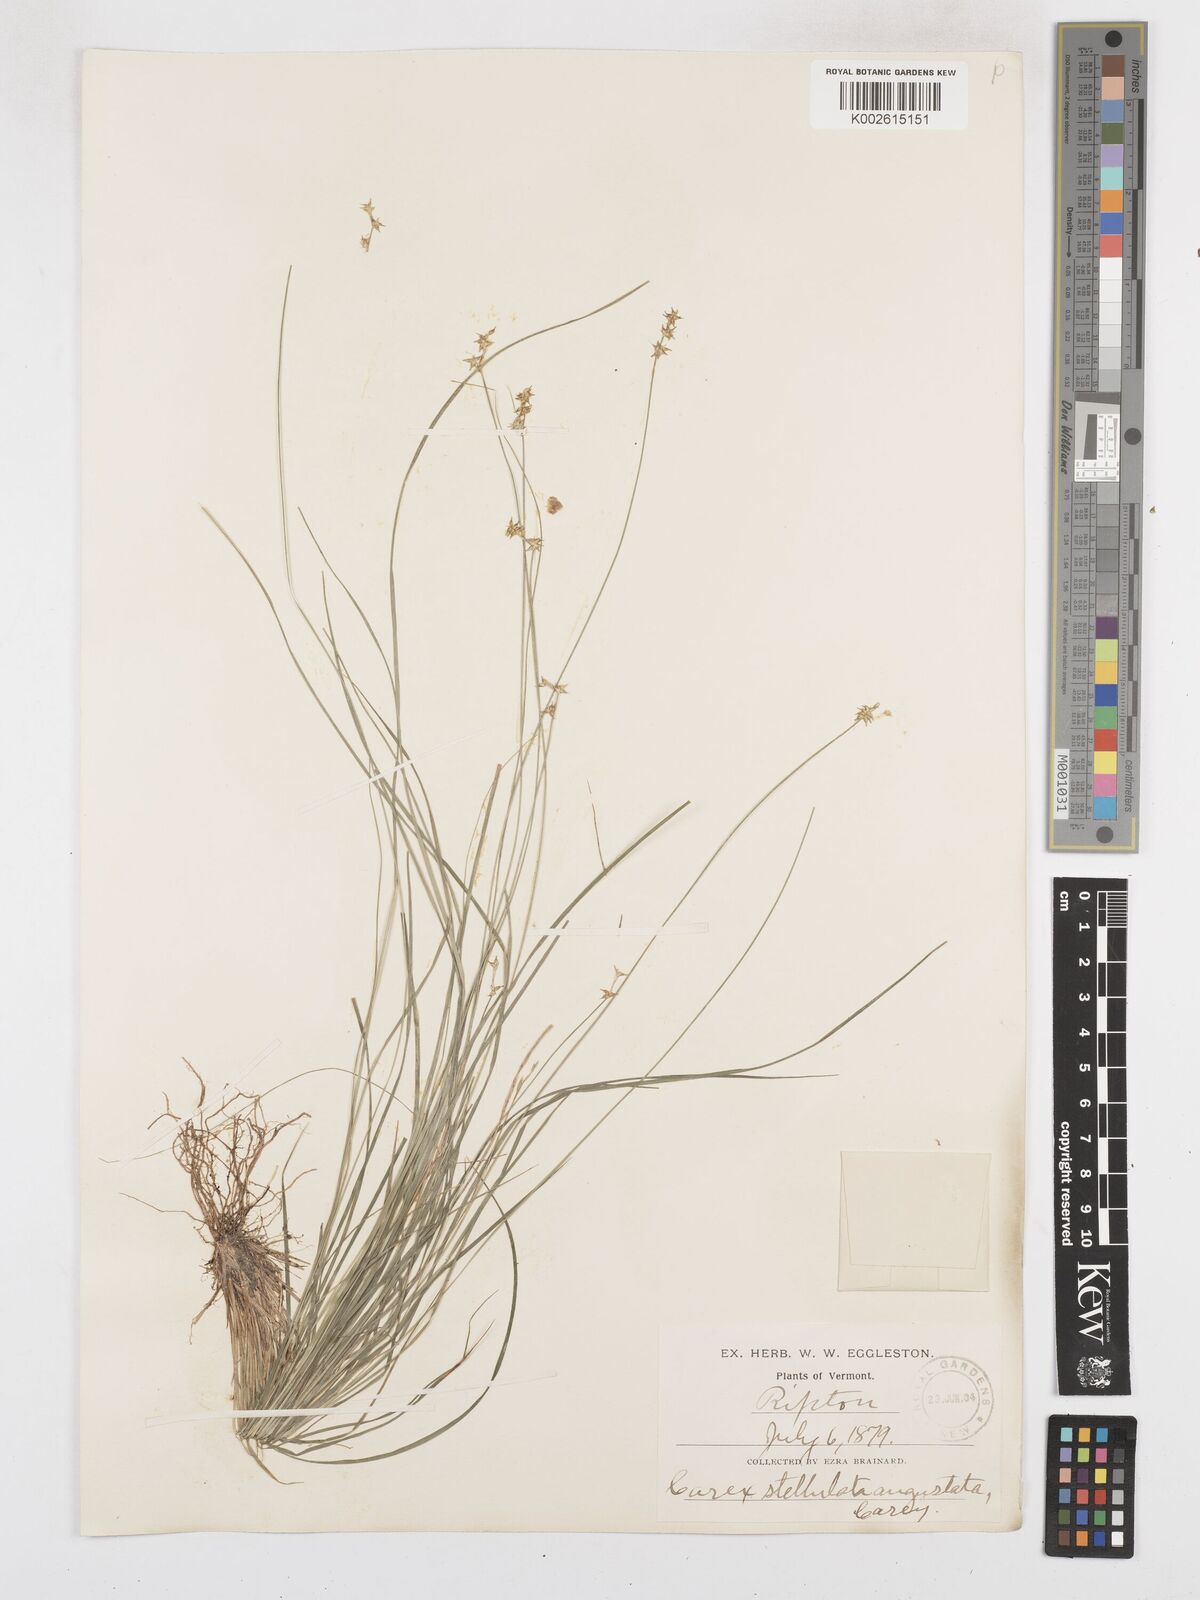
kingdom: Plantae
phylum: Tracheophyta
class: Liliopsida
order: Poales
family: Cyperaceae
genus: Carex
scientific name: Carex echinata
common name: Star sedge
